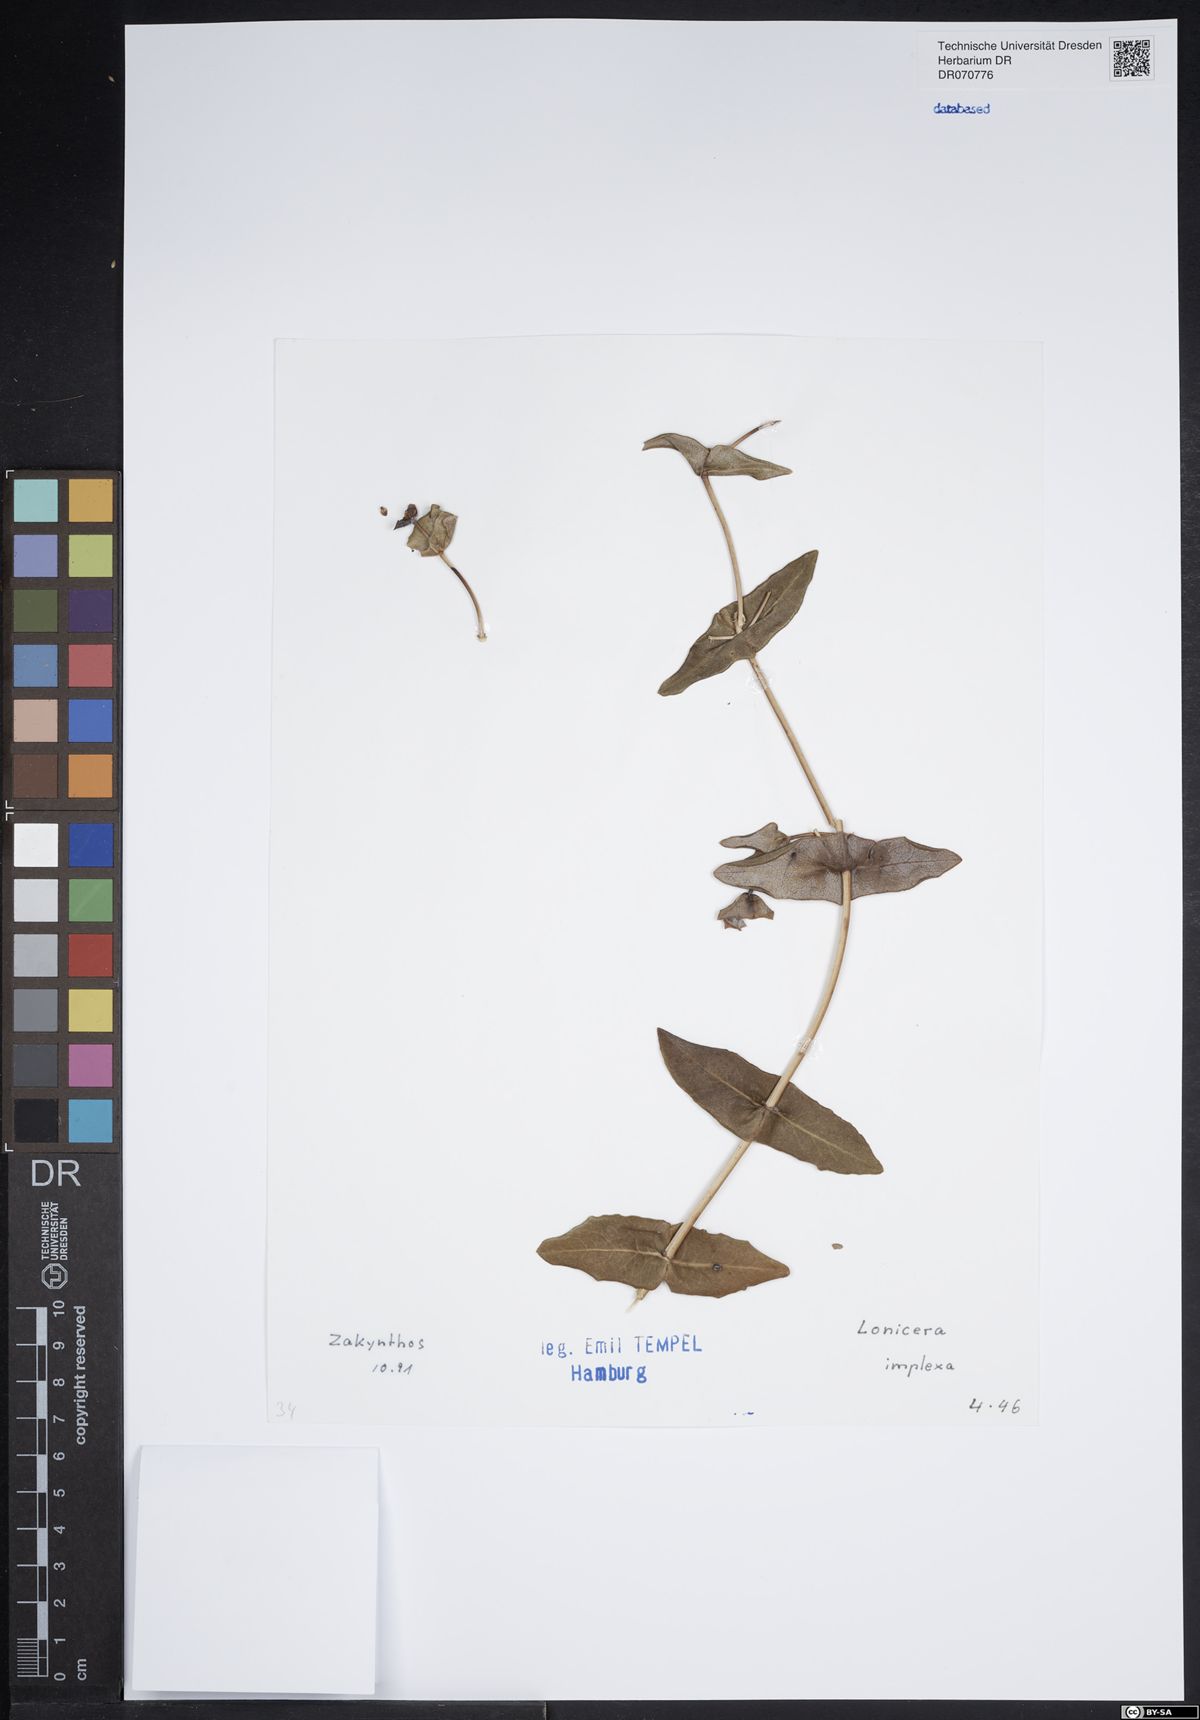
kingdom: Plantae
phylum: Tracheophyta
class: Magnoliopsida
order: Dipsacales
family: Caprifoliaceae
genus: Lonicera
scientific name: Lonicera implexa
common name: Minorca honeysuckle
